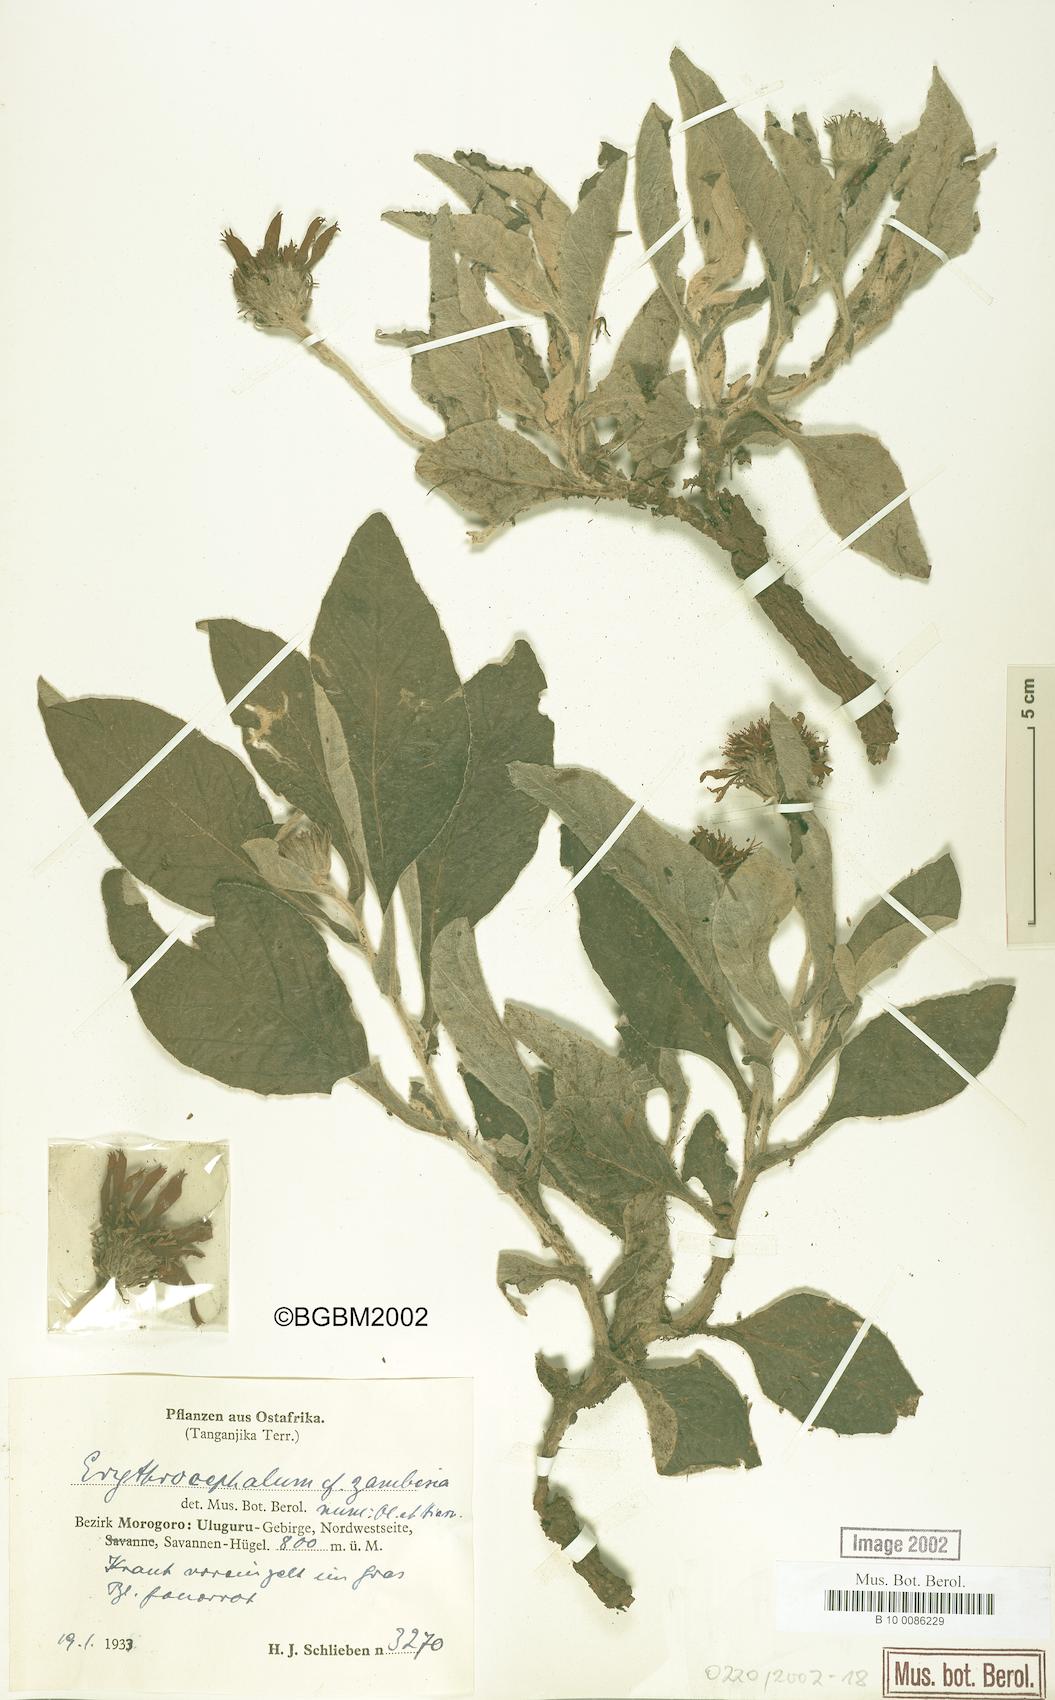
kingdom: Plantae
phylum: Tracheophyta
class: Magnoliopsida
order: Asterales
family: Asteraceae
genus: Erythrocephalum
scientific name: Erythrocephalum longifolium
